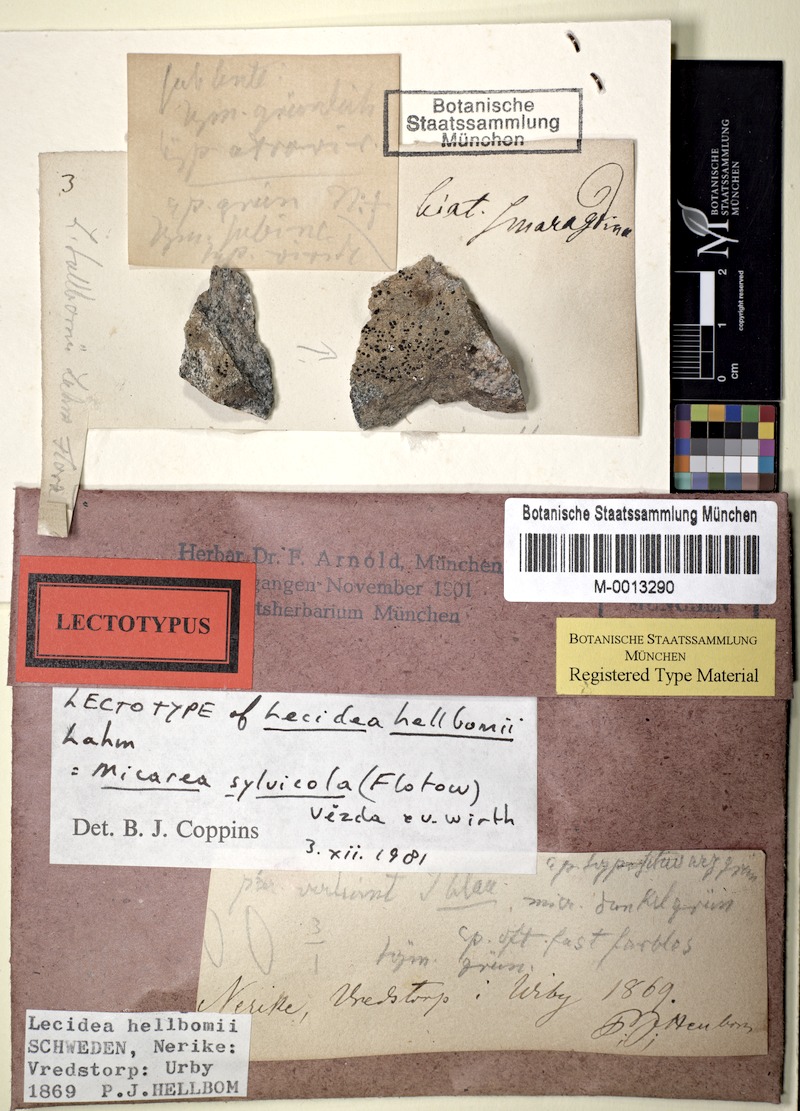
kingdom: Fungi
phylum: Ascomycota
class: Lecanoromycetes
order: Lecanorales
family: Psoraceae
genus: Brianaria
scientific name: Brianaria sylvicola
